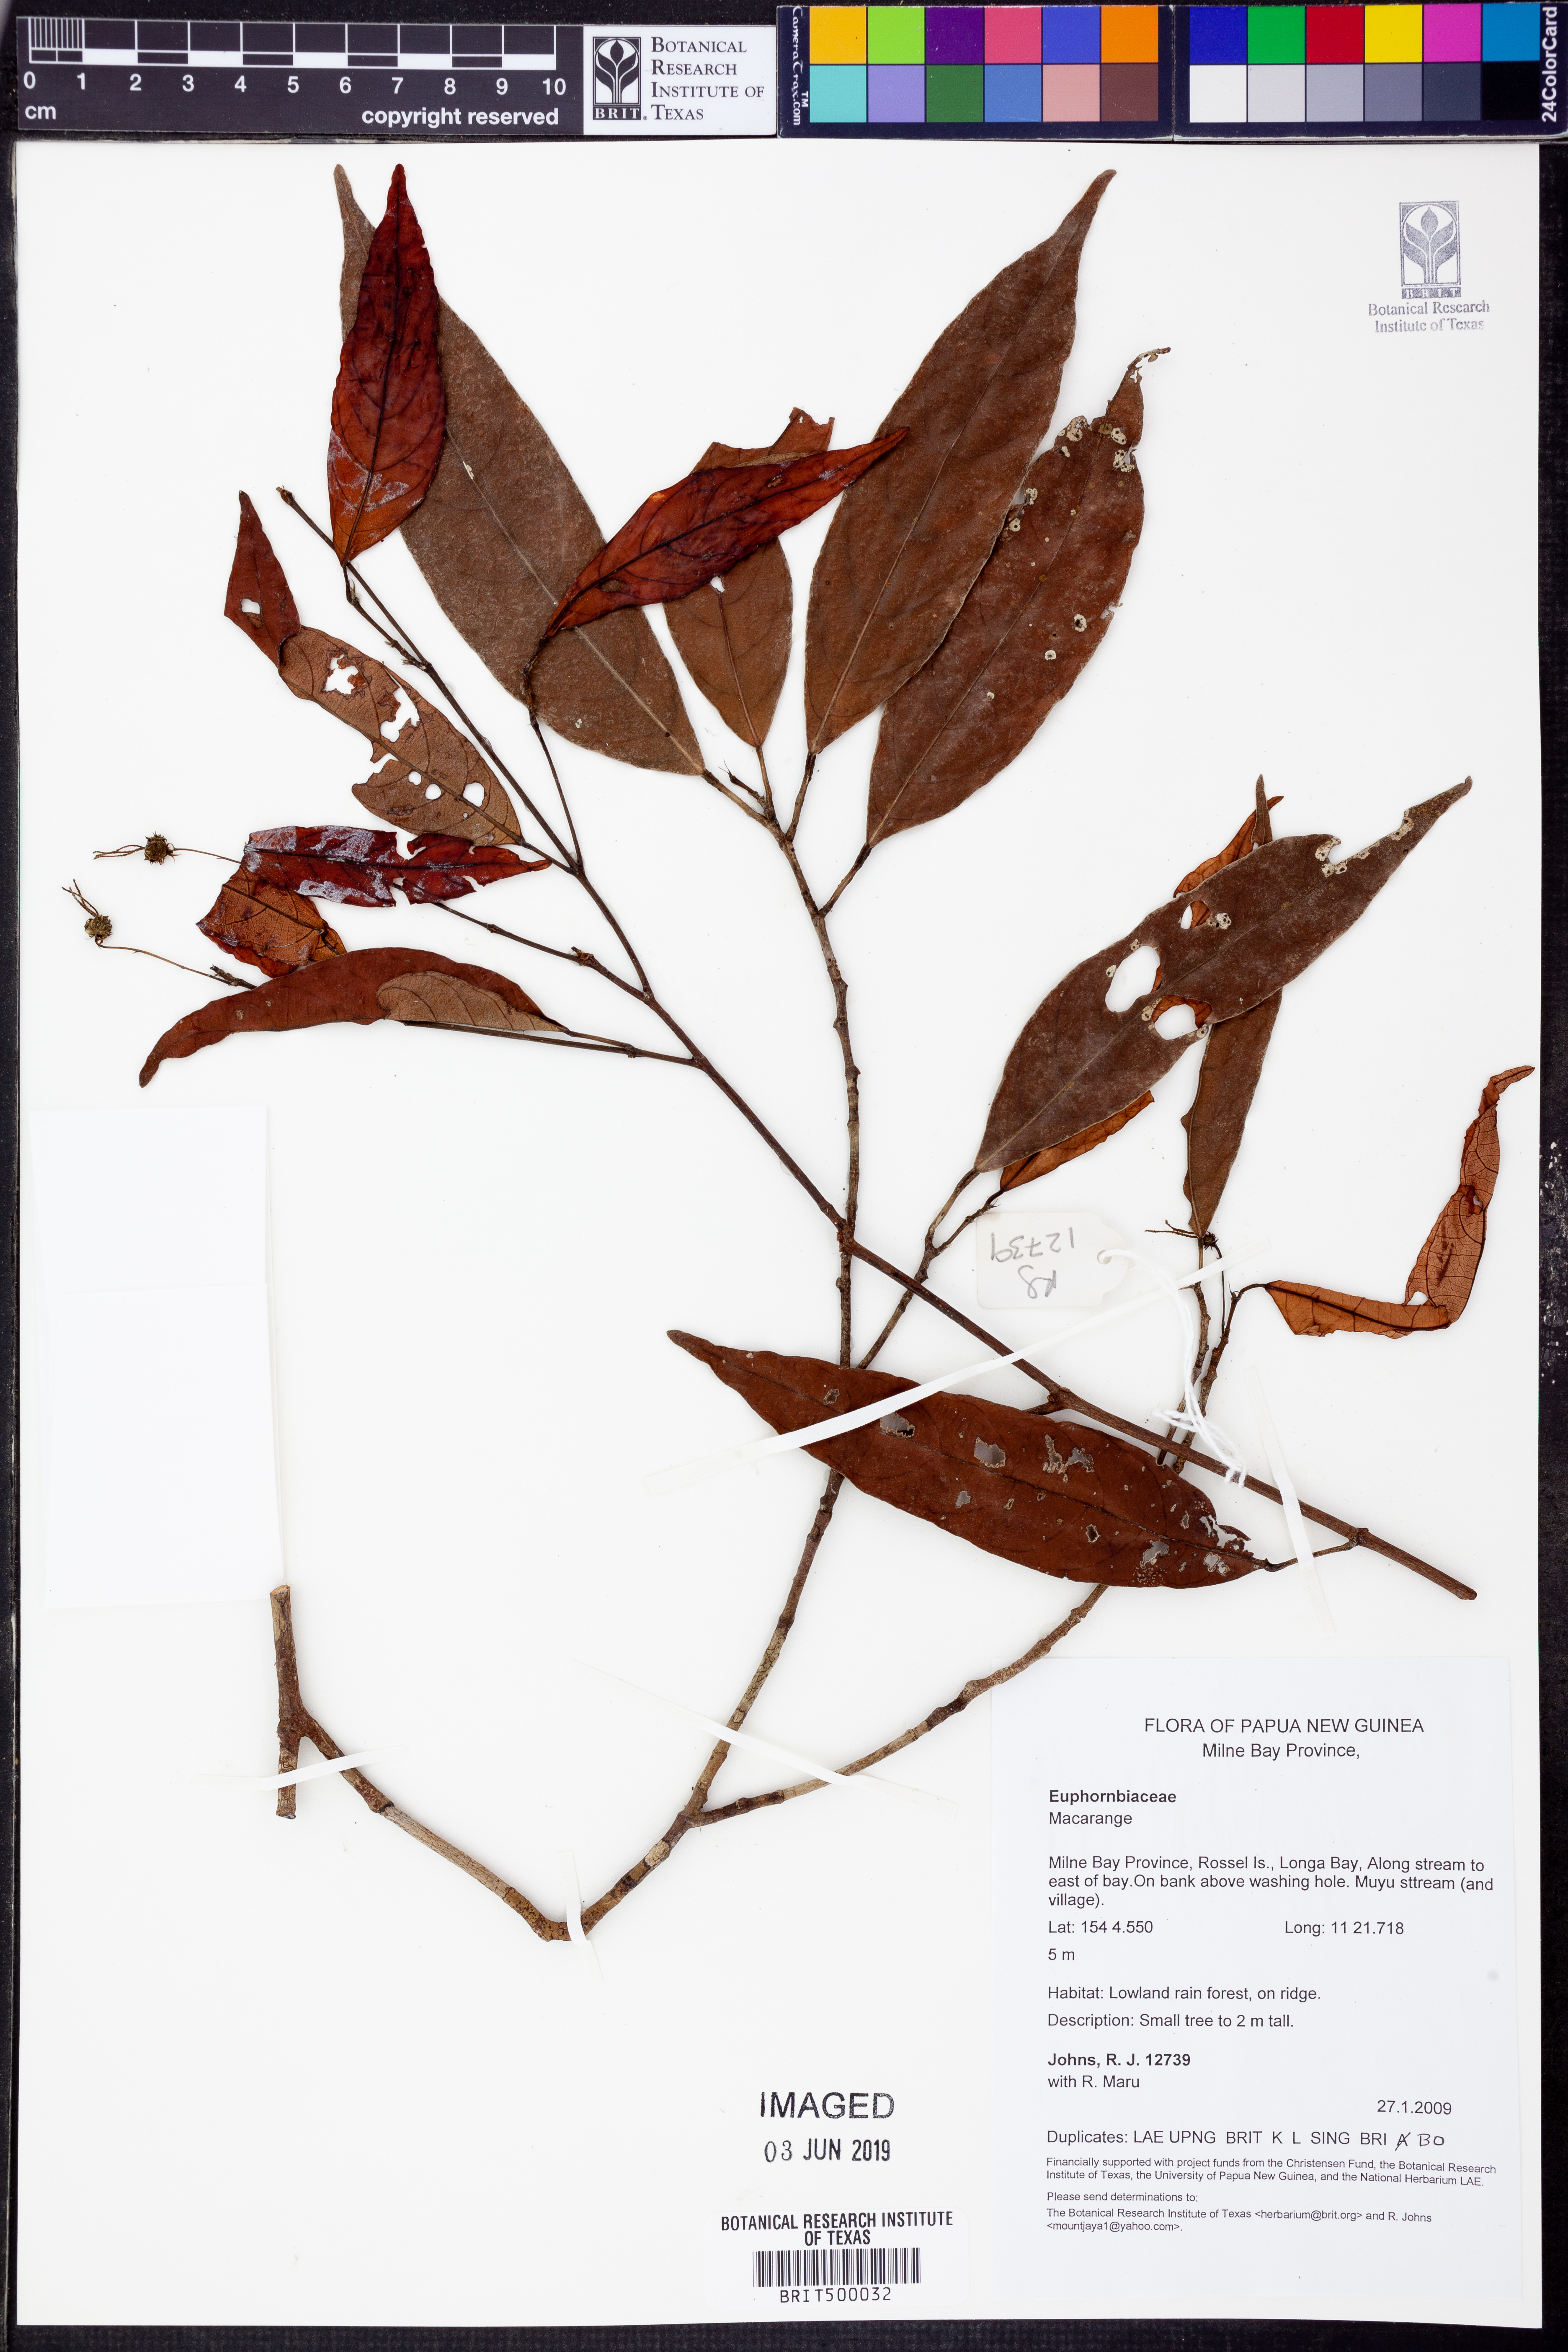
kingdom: Plantae
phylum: Tracheophyta
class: Magnoliopsida
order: Malpighiales
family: Euphorbiaceae
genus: Macaranga
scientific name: Macaranga
